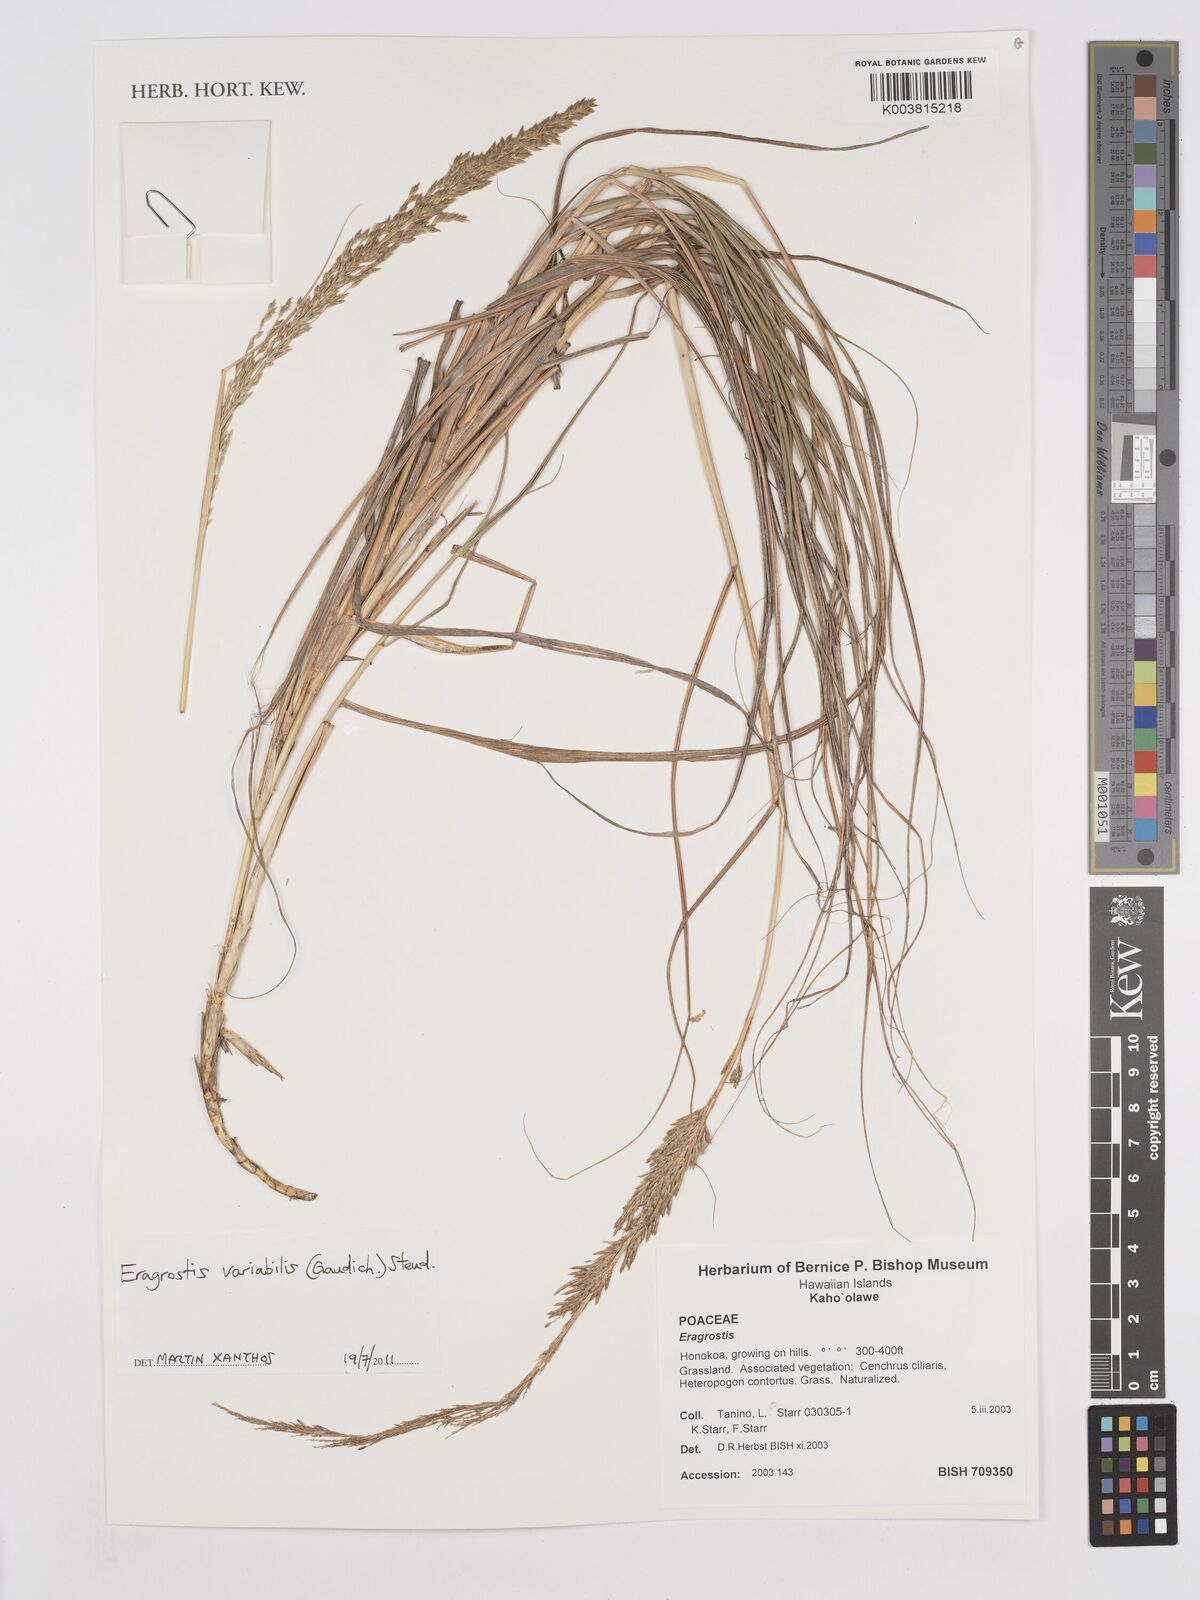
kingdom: Plantae
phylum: Tracheophyta
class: Liliopsida
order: Poales
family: Poaceae
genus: Eragrostis
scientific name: Eragrostis variabilis
